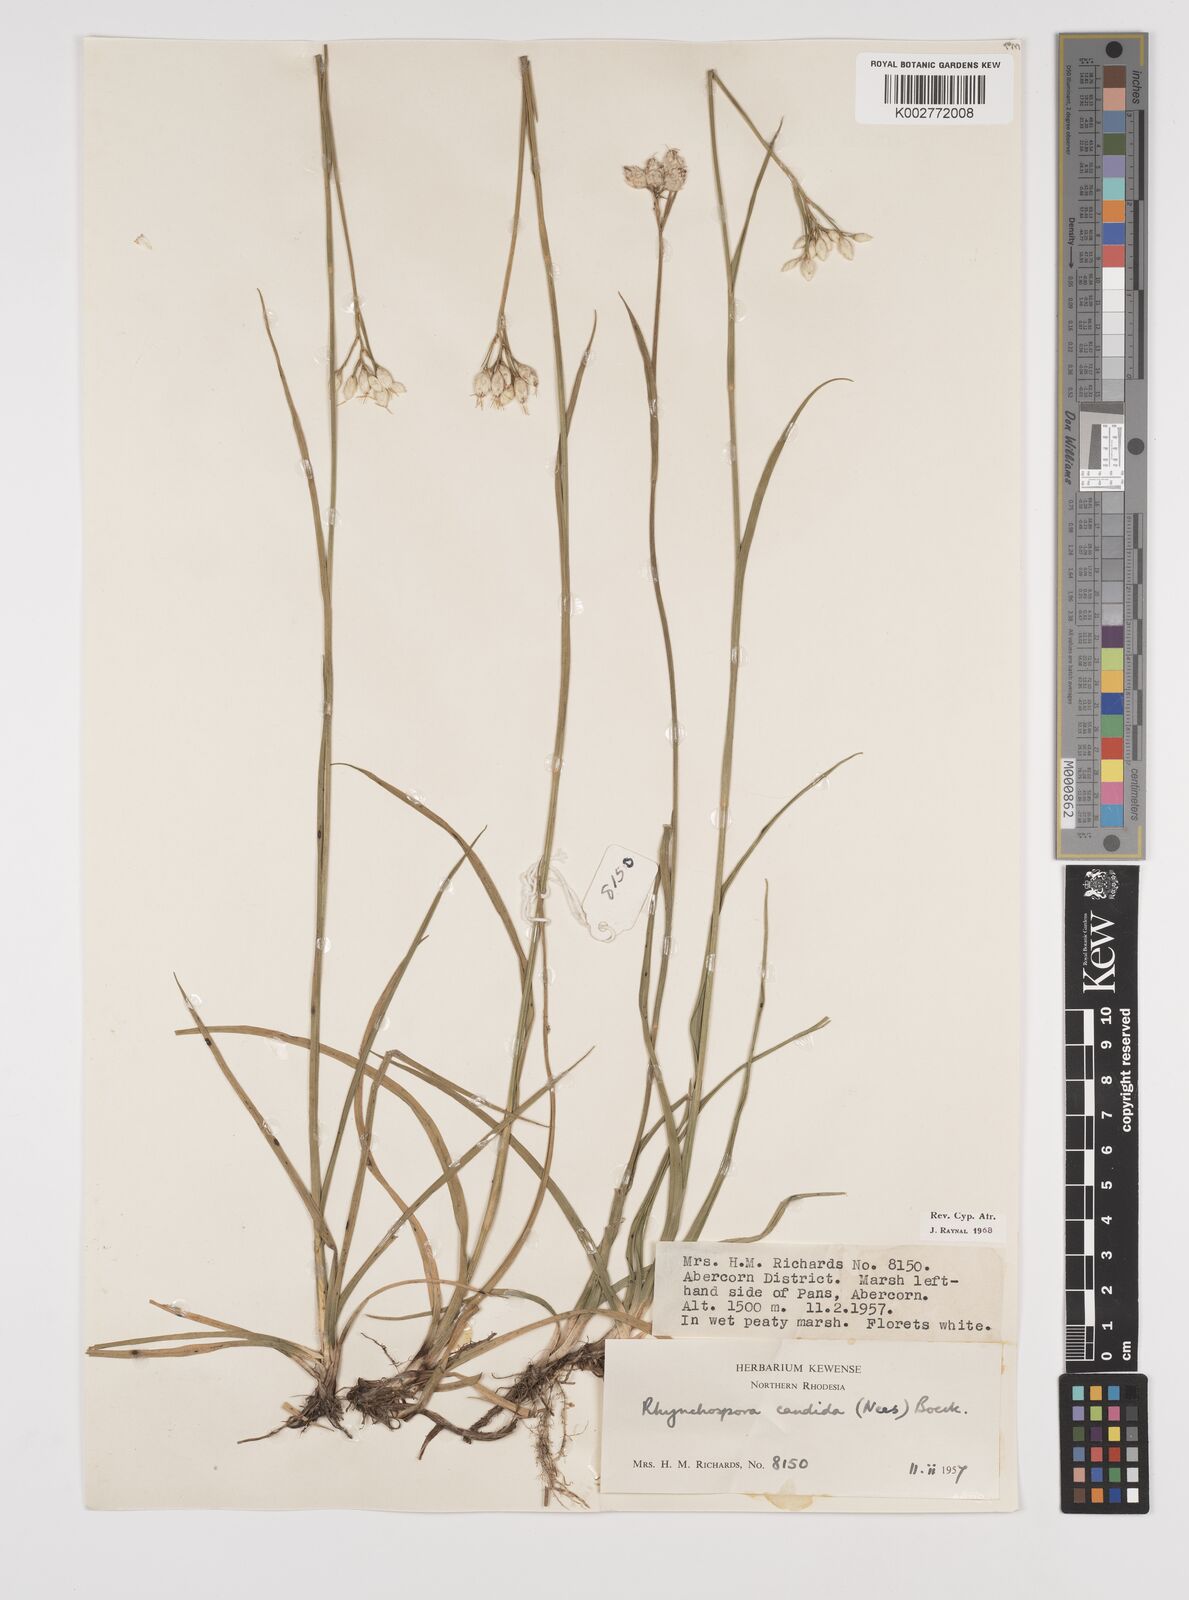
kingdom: Plantae
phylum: Tracheophyta
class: Liliopsida
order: Poales
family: Cyperaceae
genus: Rhynchospora
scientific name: Rhynchospora candida
